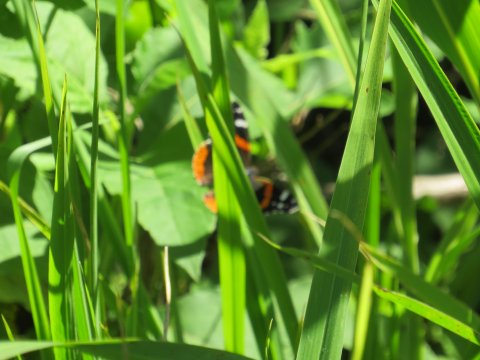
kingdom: Animalia
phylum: Arthropoda
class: Insecta
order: Lepidoptera
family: Nymphalidae
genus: Vanessa
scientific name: Vanessa atalanta
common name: Red Admiral
